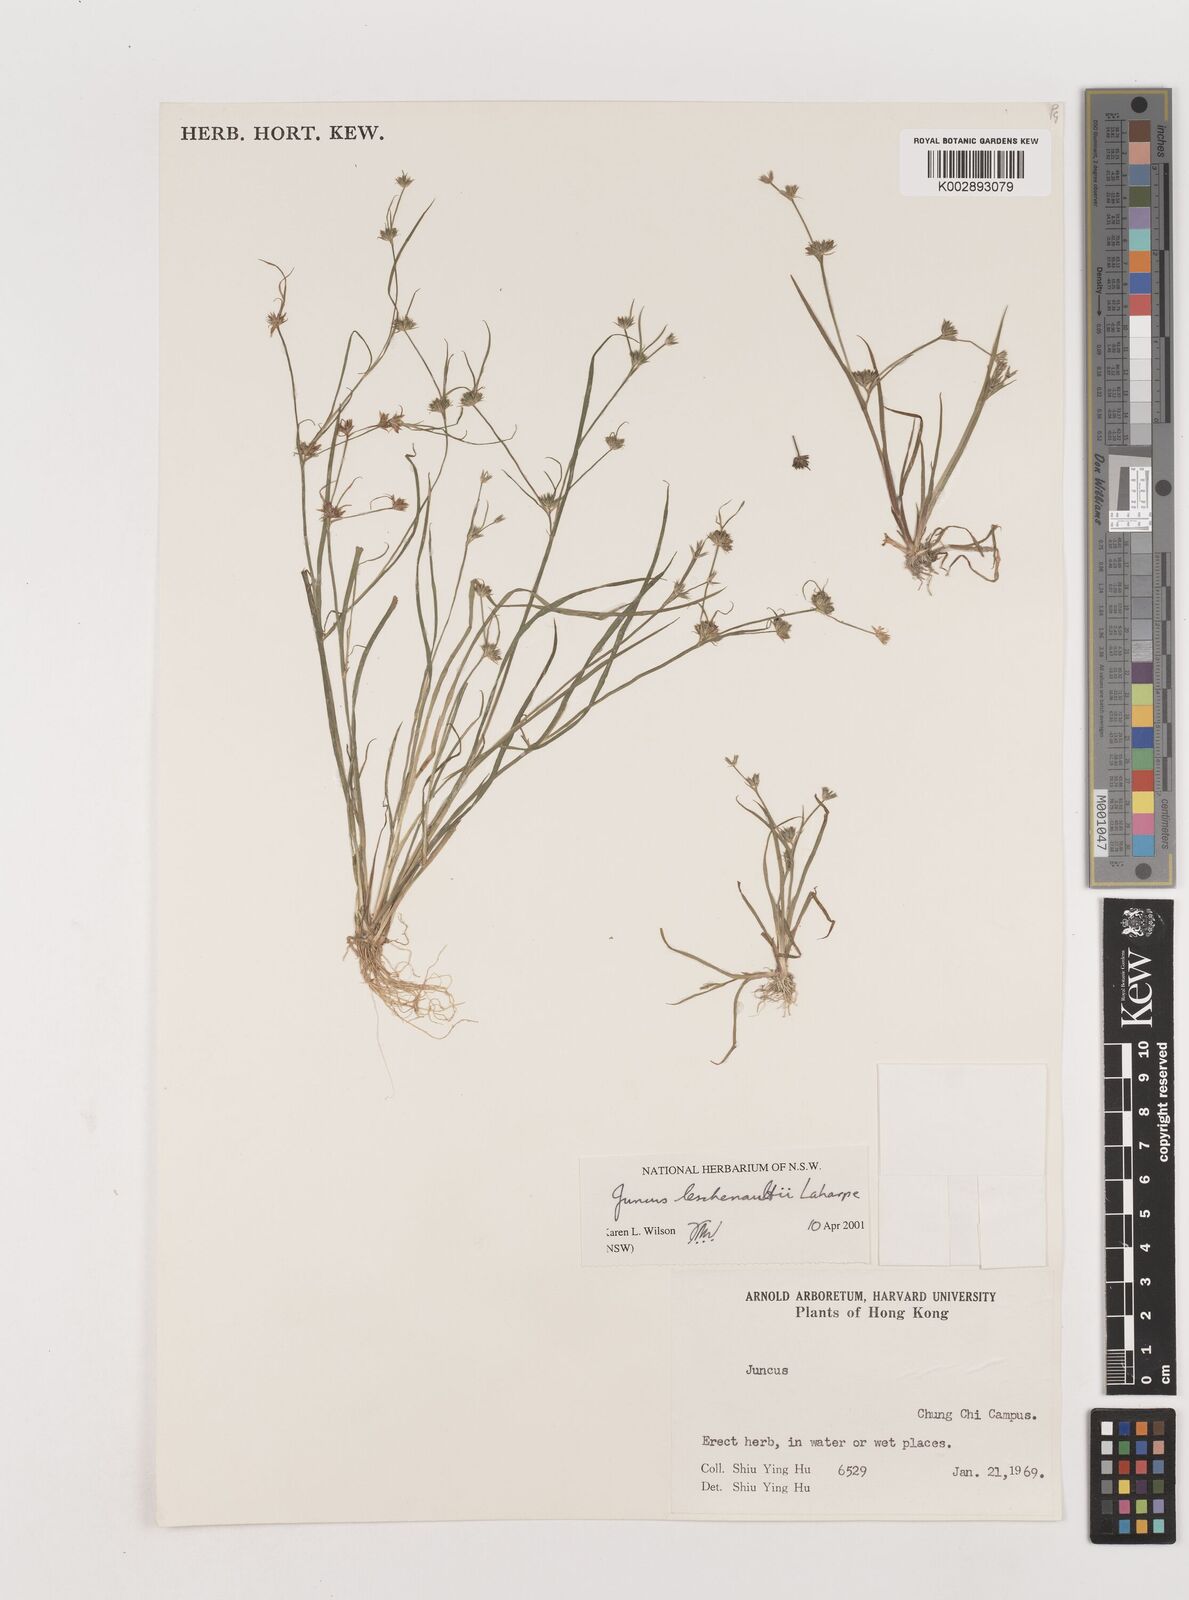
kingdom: Plantae
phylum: Tracheophyta
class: Liliopsida
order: Poales
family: Juncaceae
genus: Juncus
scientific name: Juncus prismatocarpus
